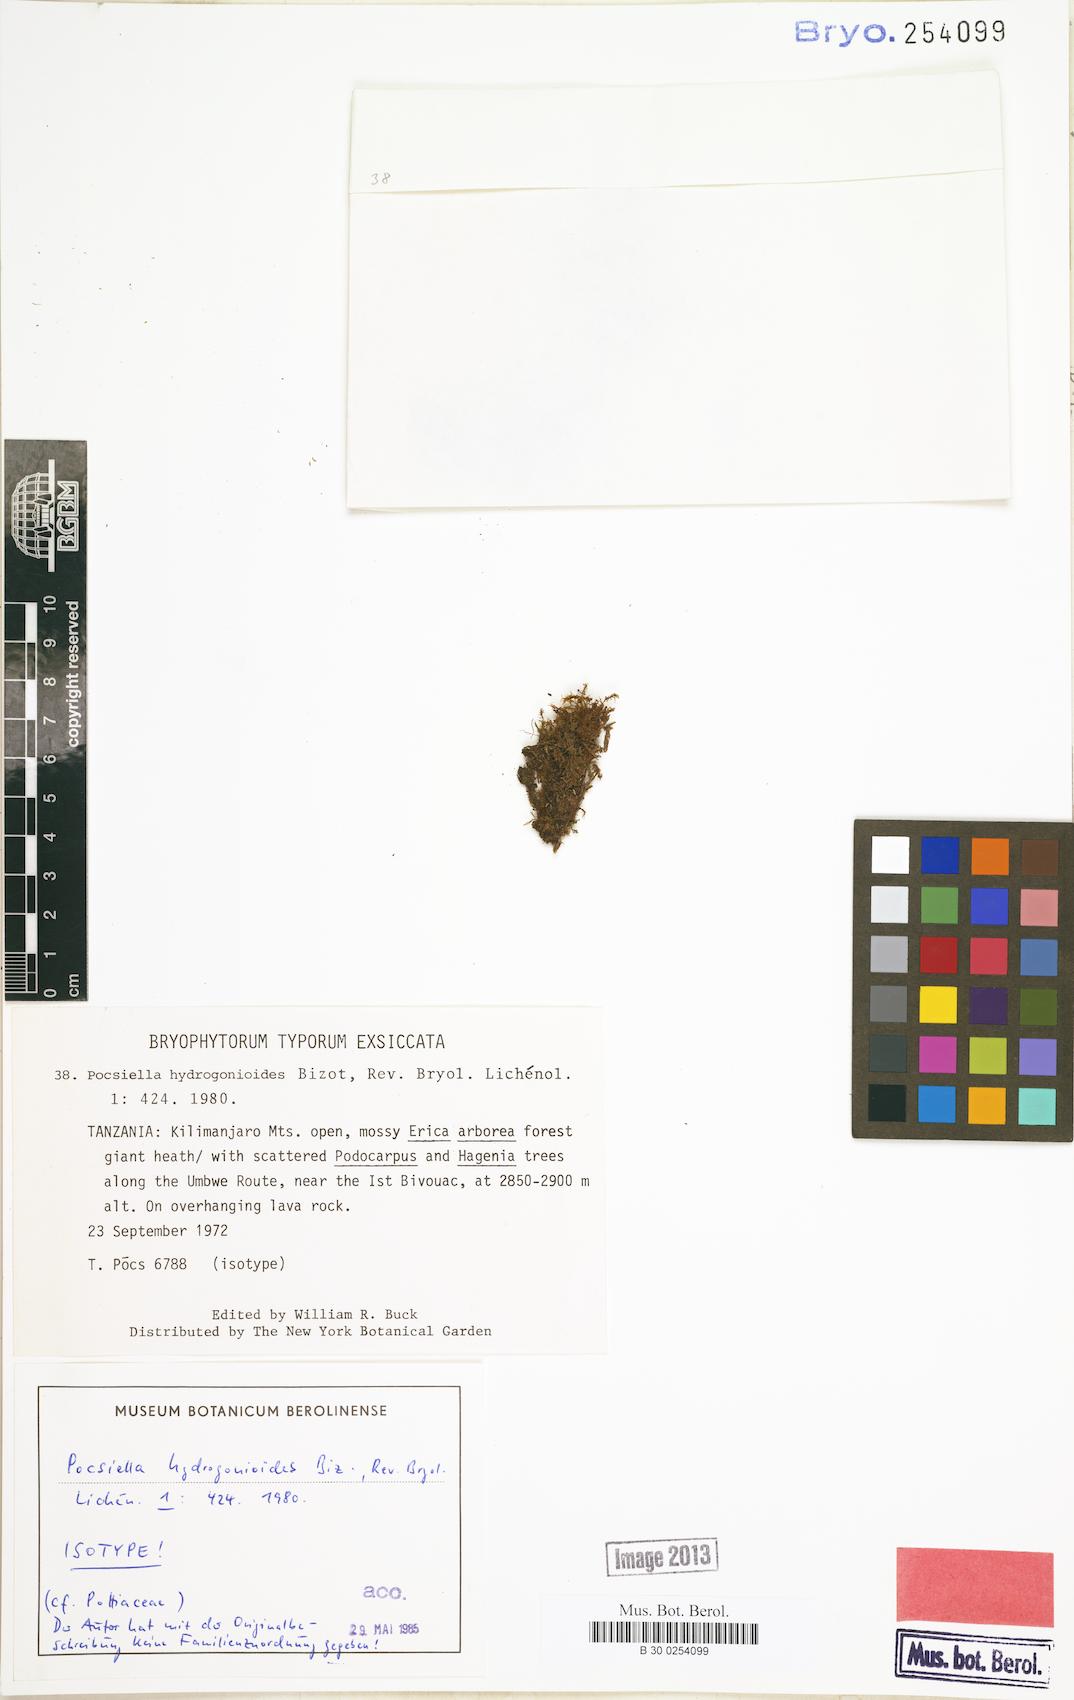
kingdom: Plantae
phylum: Bryophyta
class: Bryopsida
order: Dicranales
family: Rhabdoweisiaceae
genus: Cynodontium
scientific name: Cynodontium hydrogonioides
